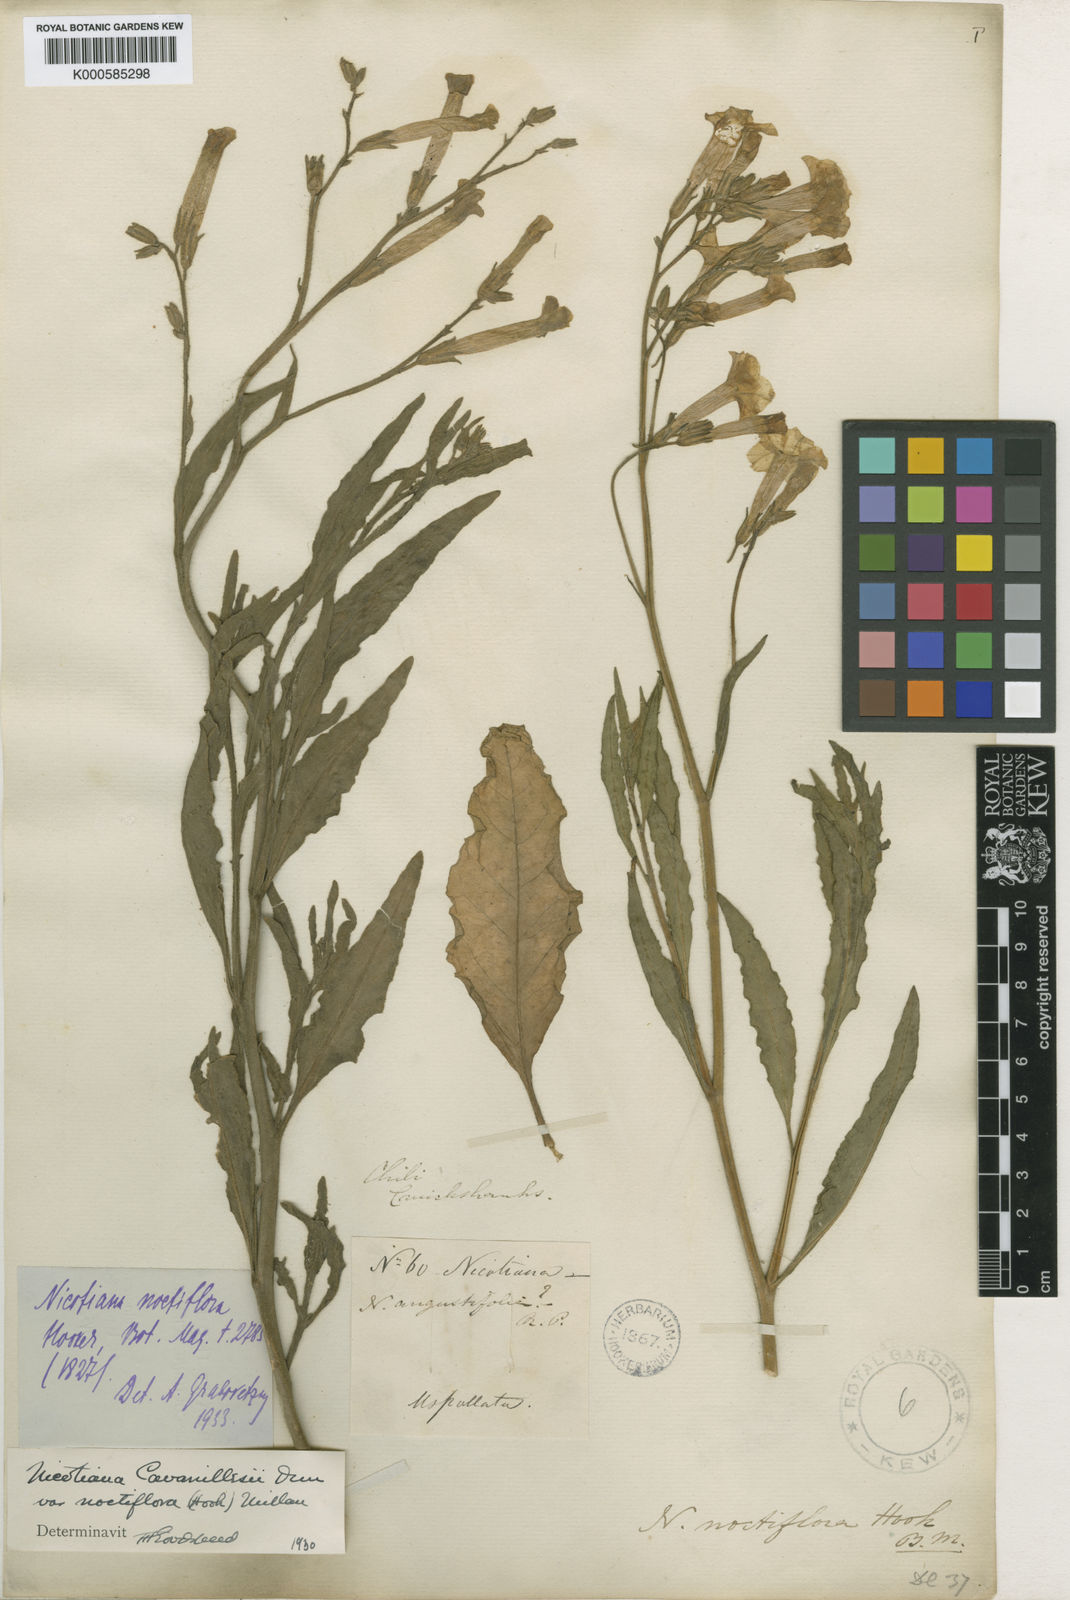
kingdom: Plantae
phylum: Tracheophyta
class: Magnoliopsida
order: Solanales
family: Solanaceae
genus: Nicotiana
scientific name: Nicotiana noctiflora
